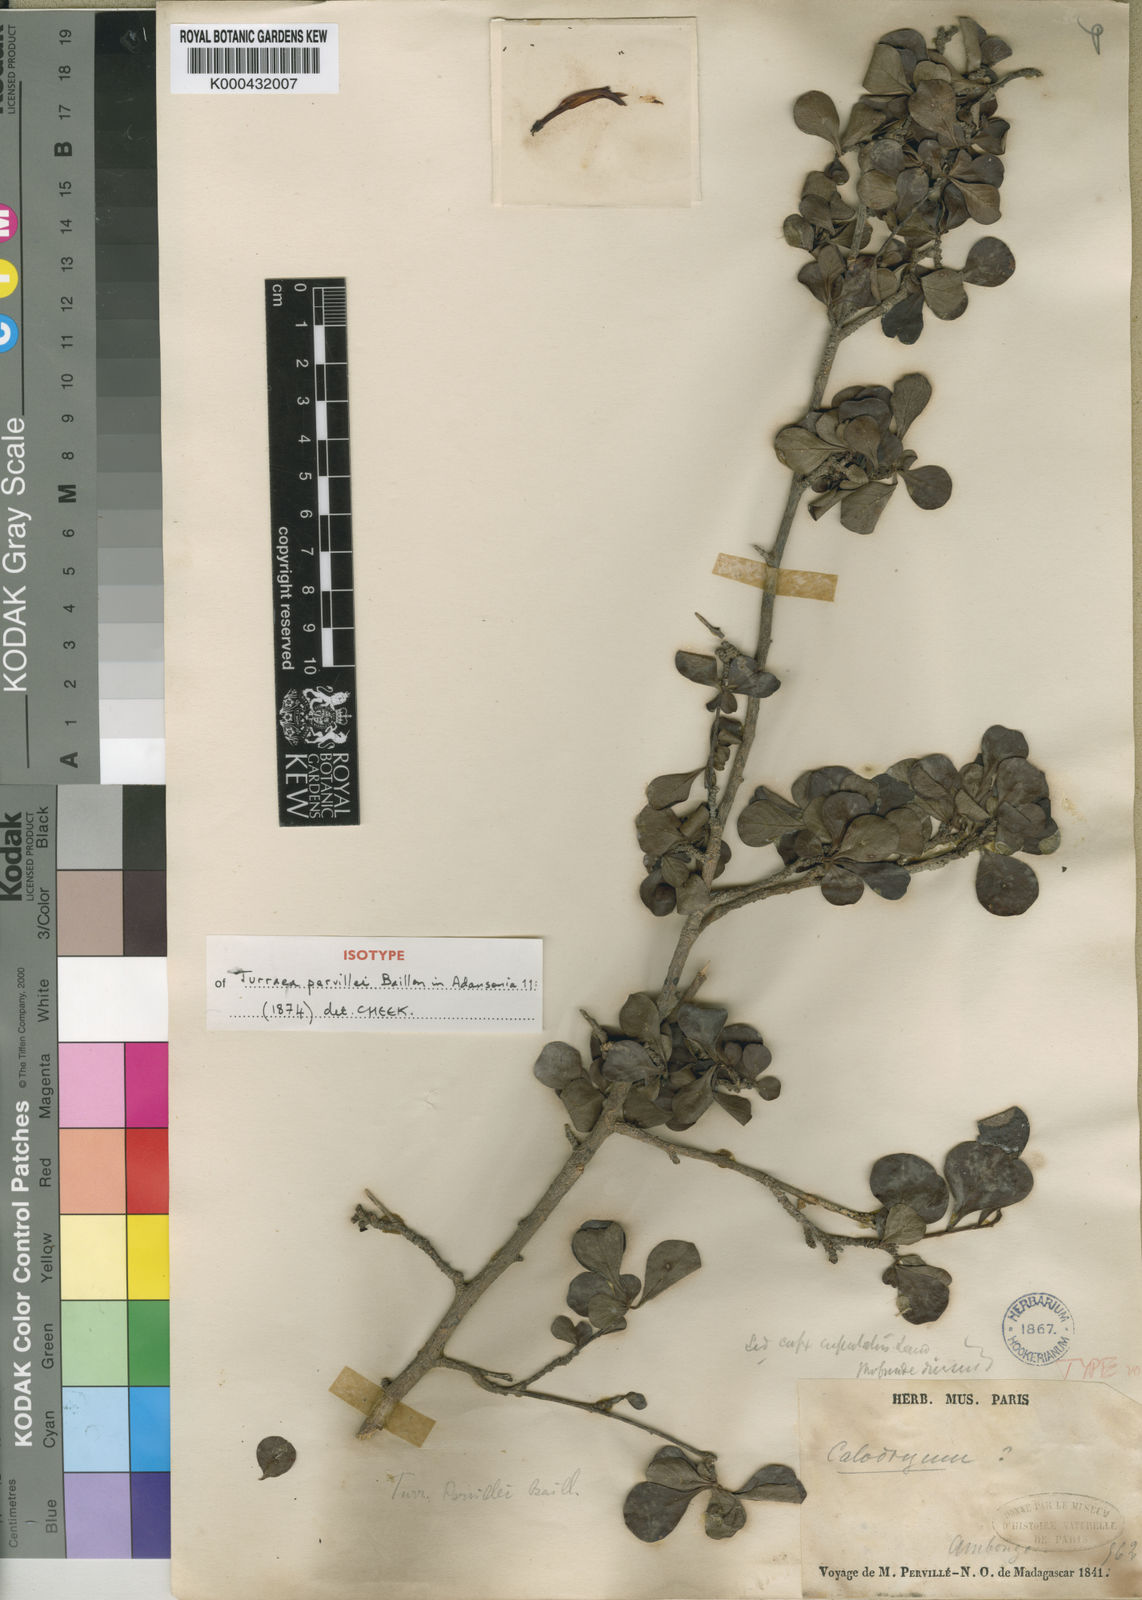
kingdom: Plantae
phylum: Tracheophyta
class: Magnoliopsida
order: Sapindales
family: Meliaceae
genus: Turraea
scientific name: Turraea pervillei
